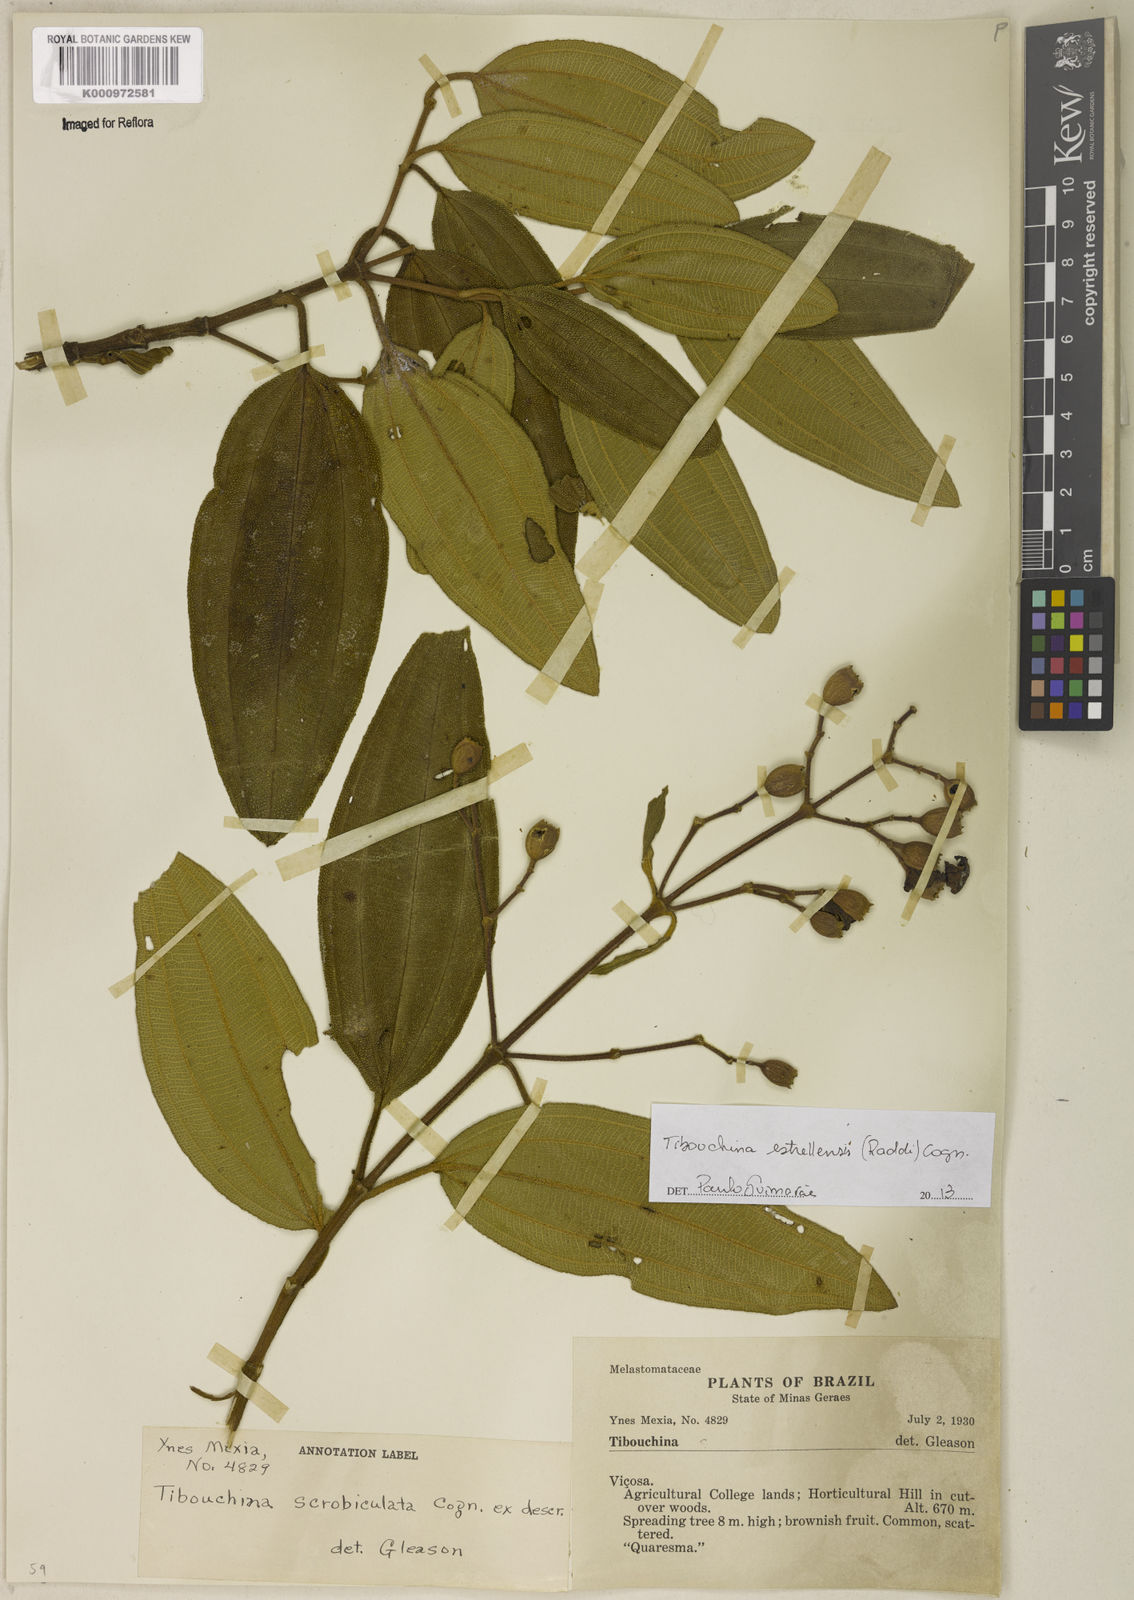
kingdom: Plantae
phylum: Tracheophyta
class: Magnoliopsida
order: Myrtales
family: Melastomataceae
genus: Pleroma
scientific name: Pleroma estrellense
